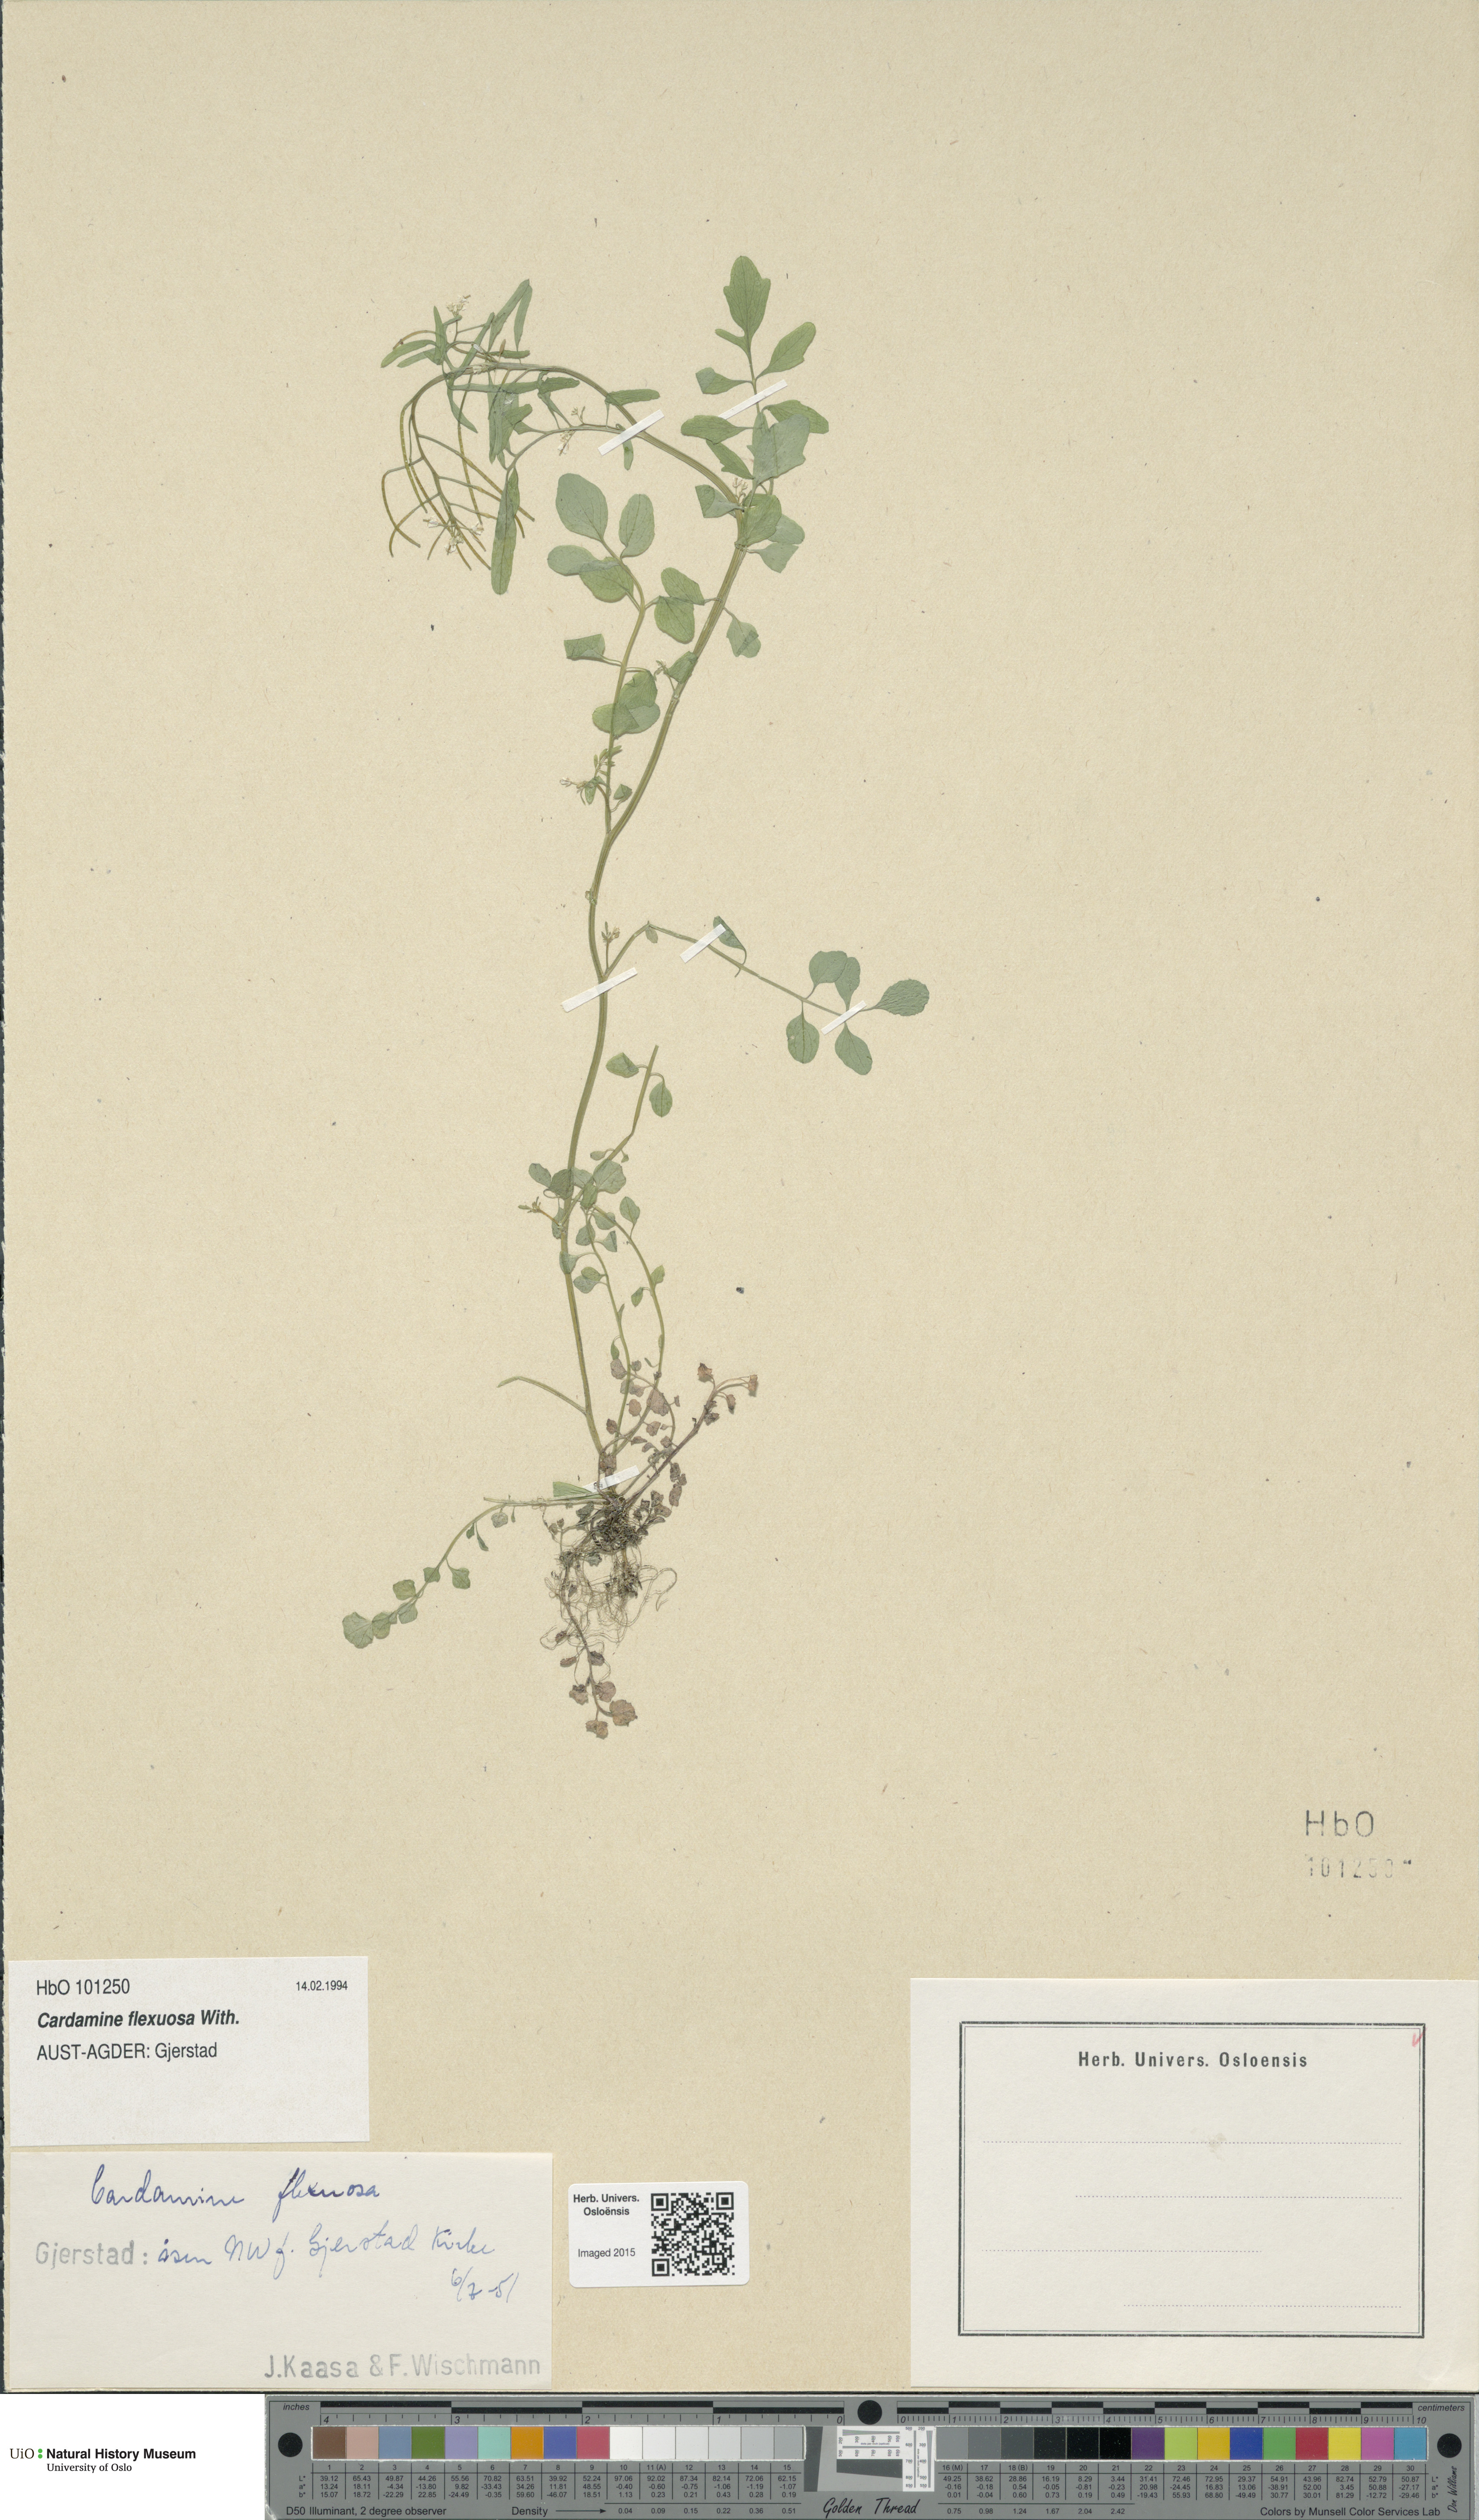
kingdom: Plantae
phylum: Tracheophyta
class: Magnoliopsida
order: Brassicales
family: Brassicaceae
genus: Cardamine
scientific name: Cardamine flexuosa
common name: Woodland bittercress
